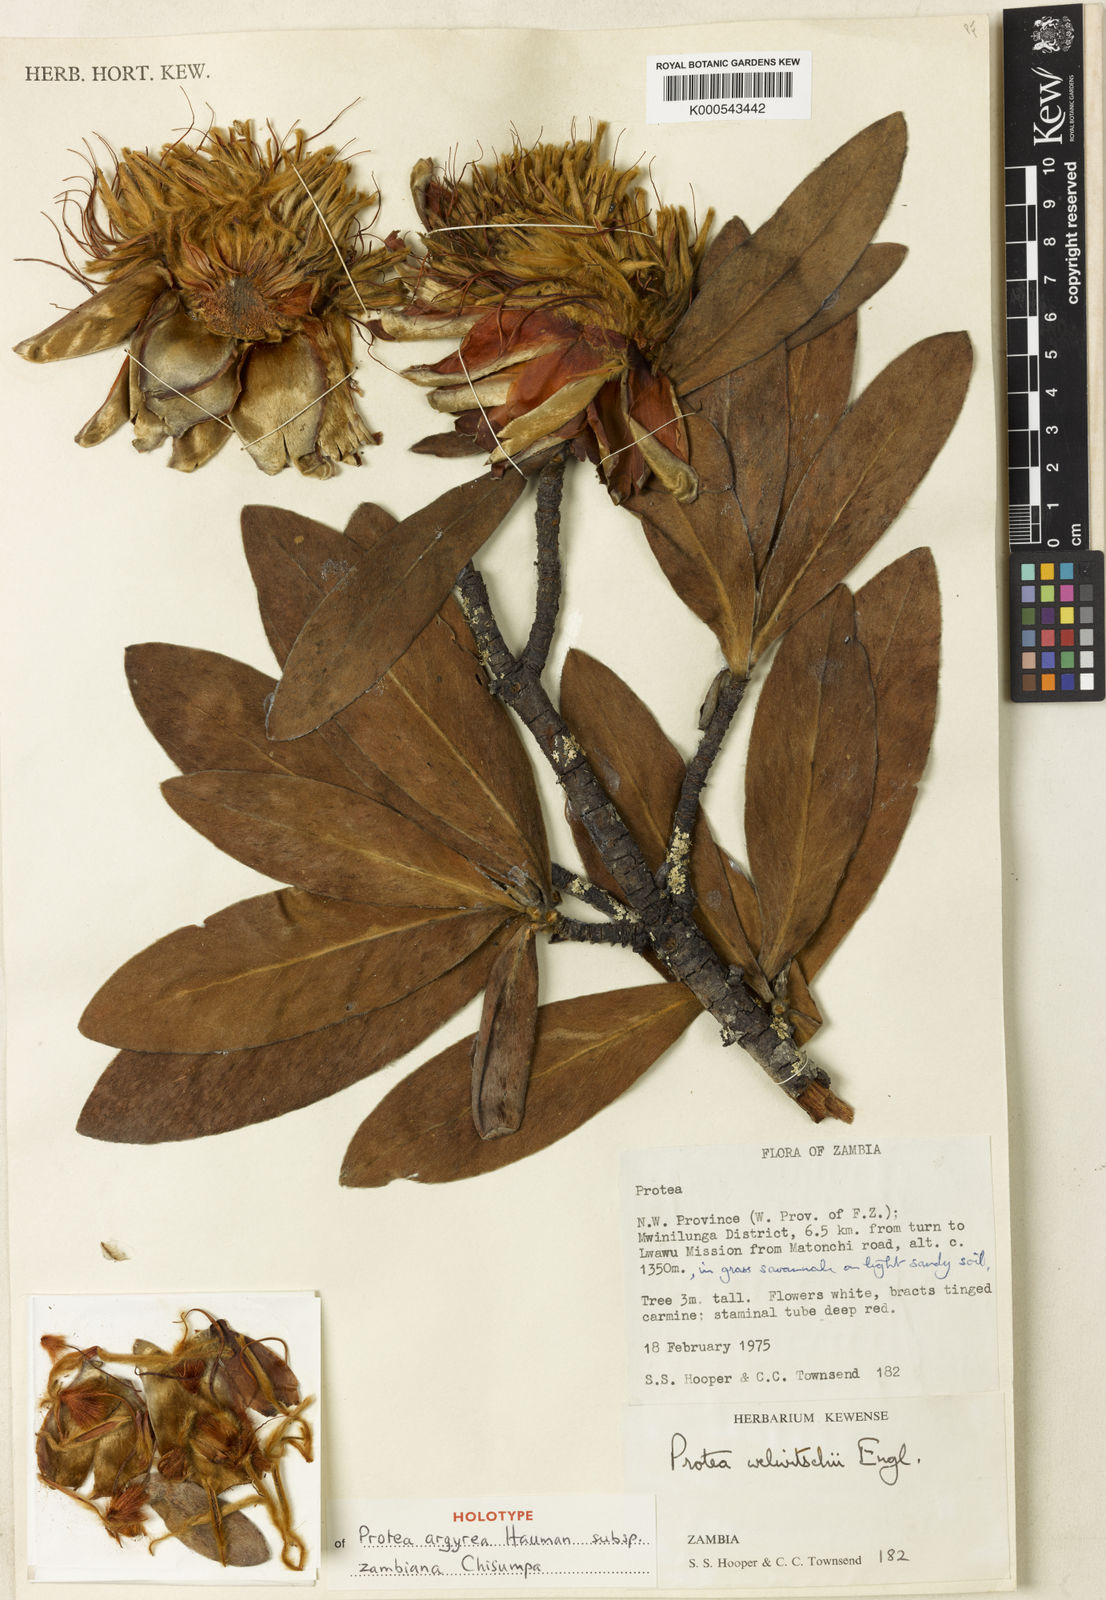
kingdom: Plantae
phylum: Tracheophyta
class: Magnoliopsida
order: Proteales
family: Proteaceae
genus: Protea
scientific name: Protea argyrea
